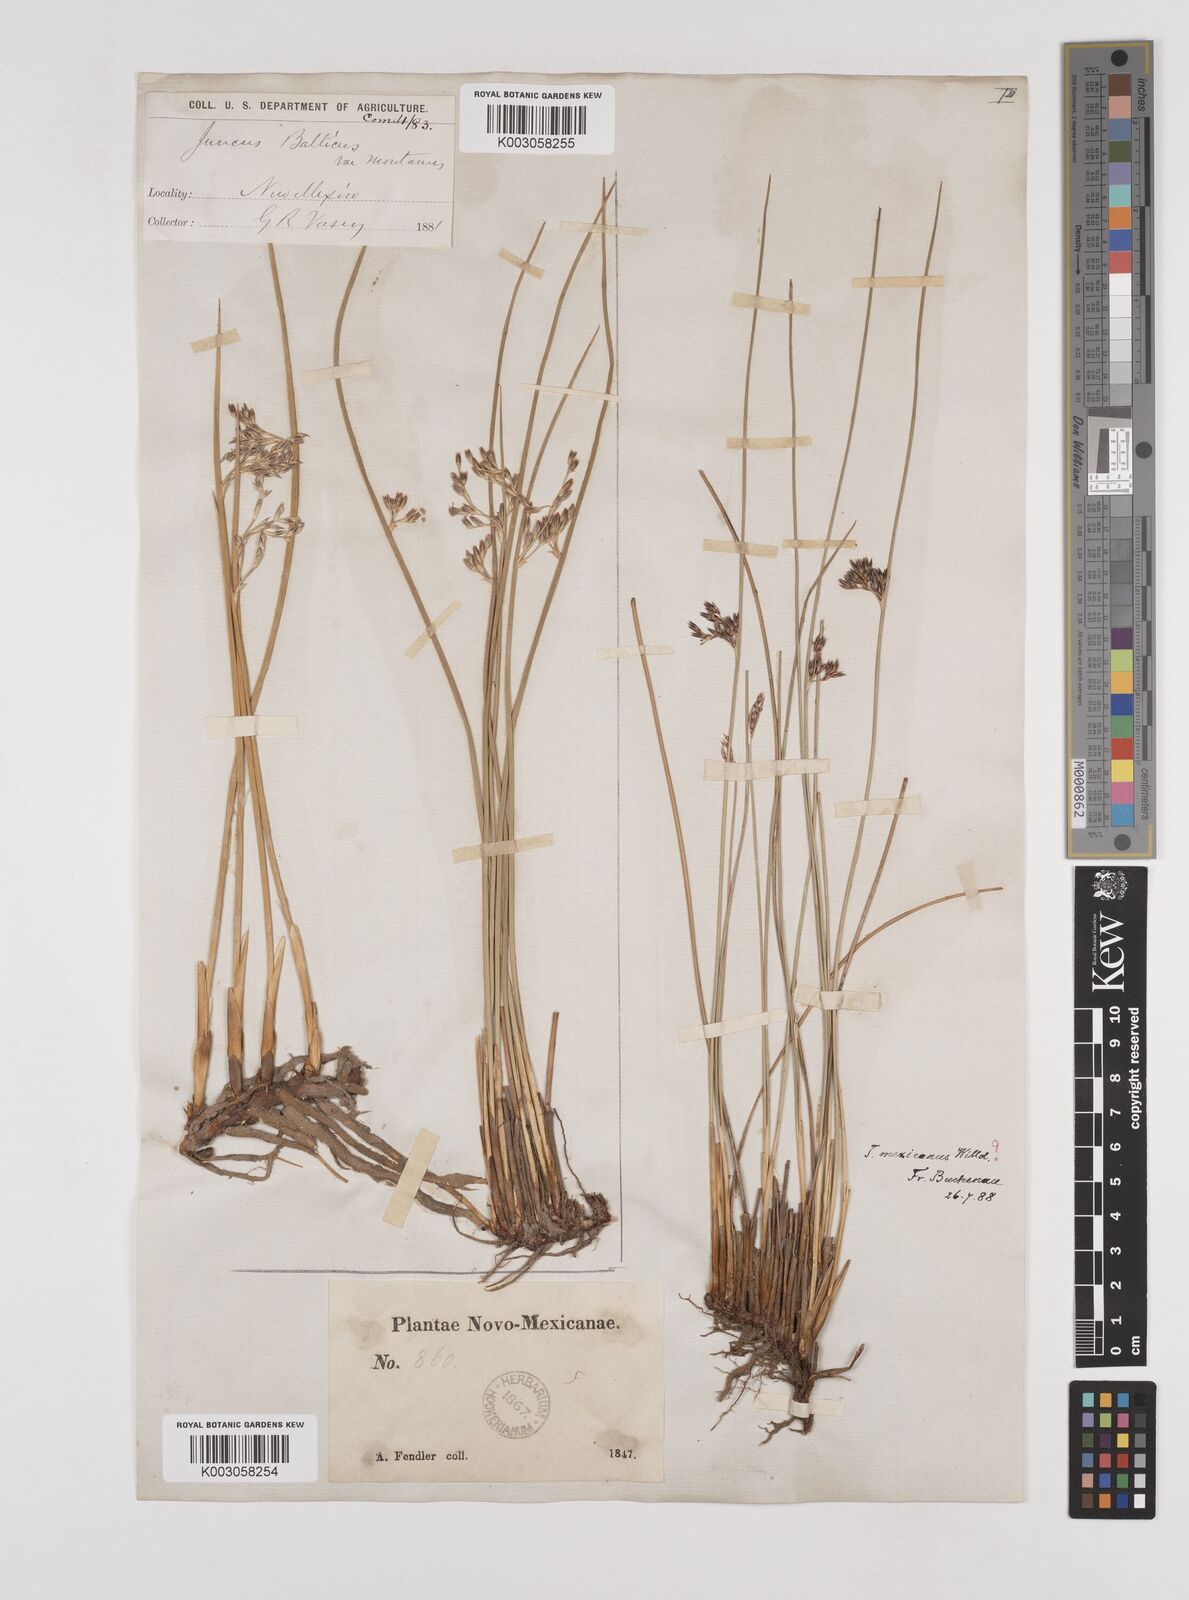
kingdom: Plantae
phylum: Tracheophyta
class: Liliopsida
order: Poales
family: Juncaceae
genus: Juncus
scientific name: Juncus
